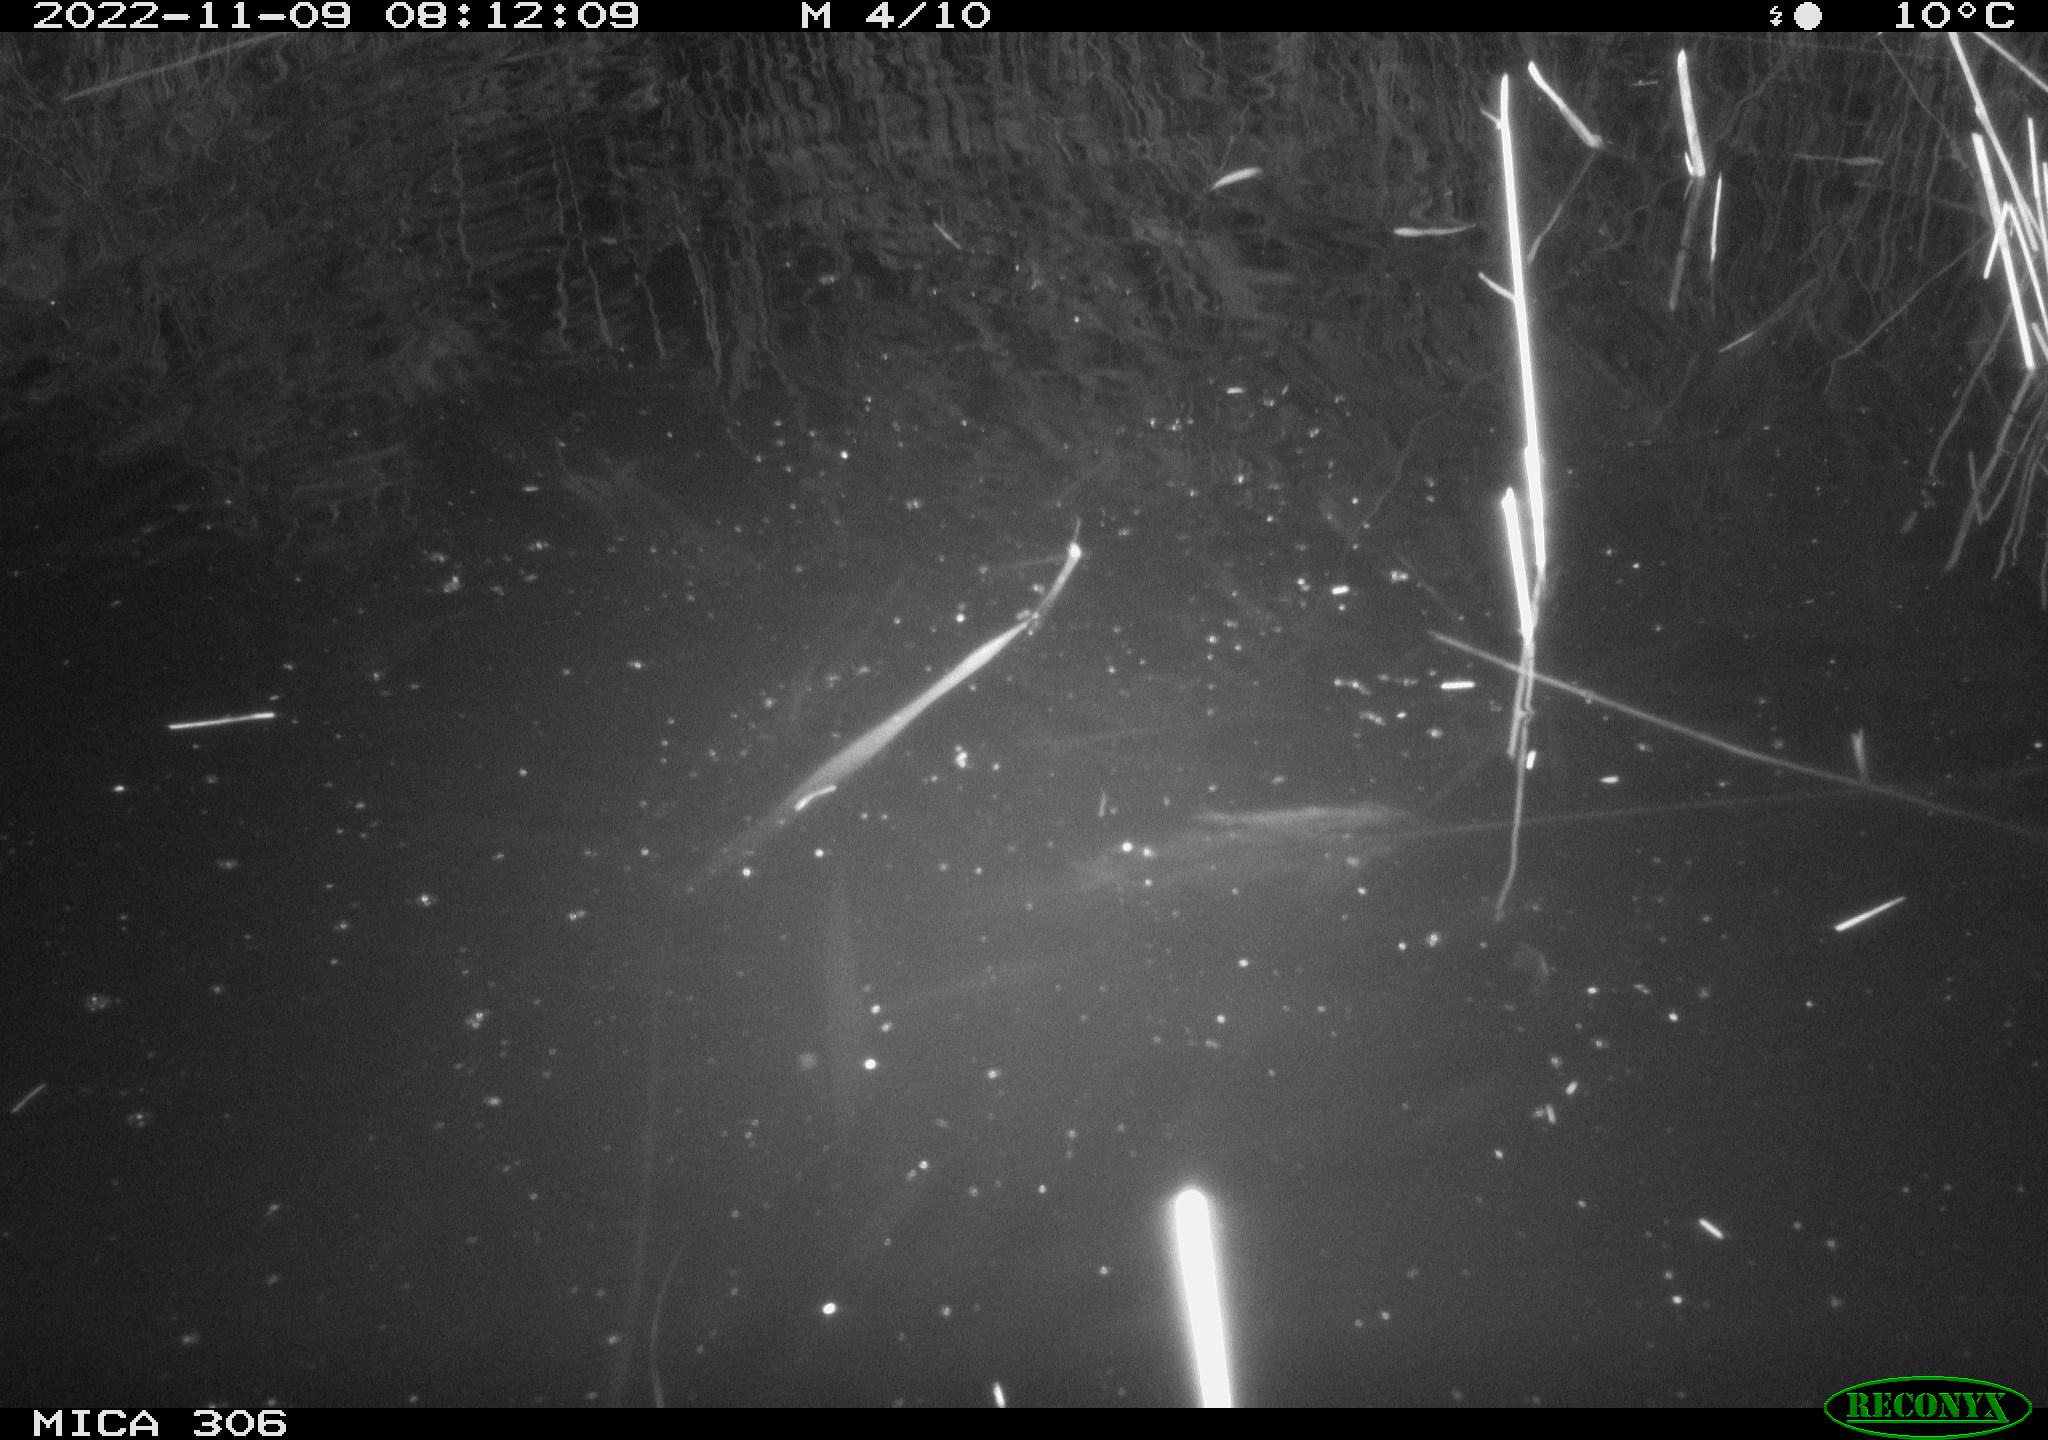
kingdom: Animalia
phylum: Chordata
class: Mammalia
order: Rodentia
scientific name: Rodentia
